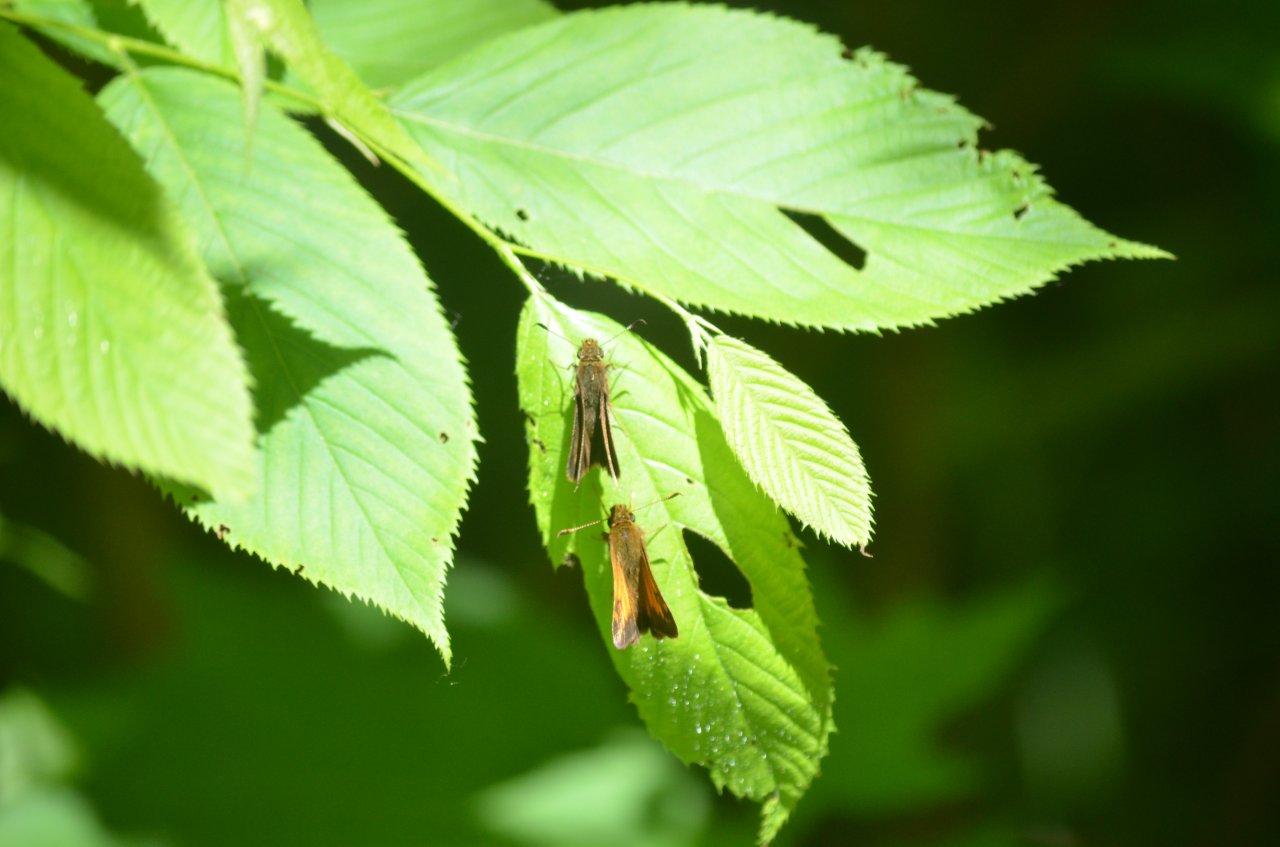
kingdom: Animalia
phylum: Arthropoda
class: Insecta
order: Lepidoptera
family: Hesperiidae
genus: Lon
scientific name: Lon hobomok
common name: Hobomok Skipper
